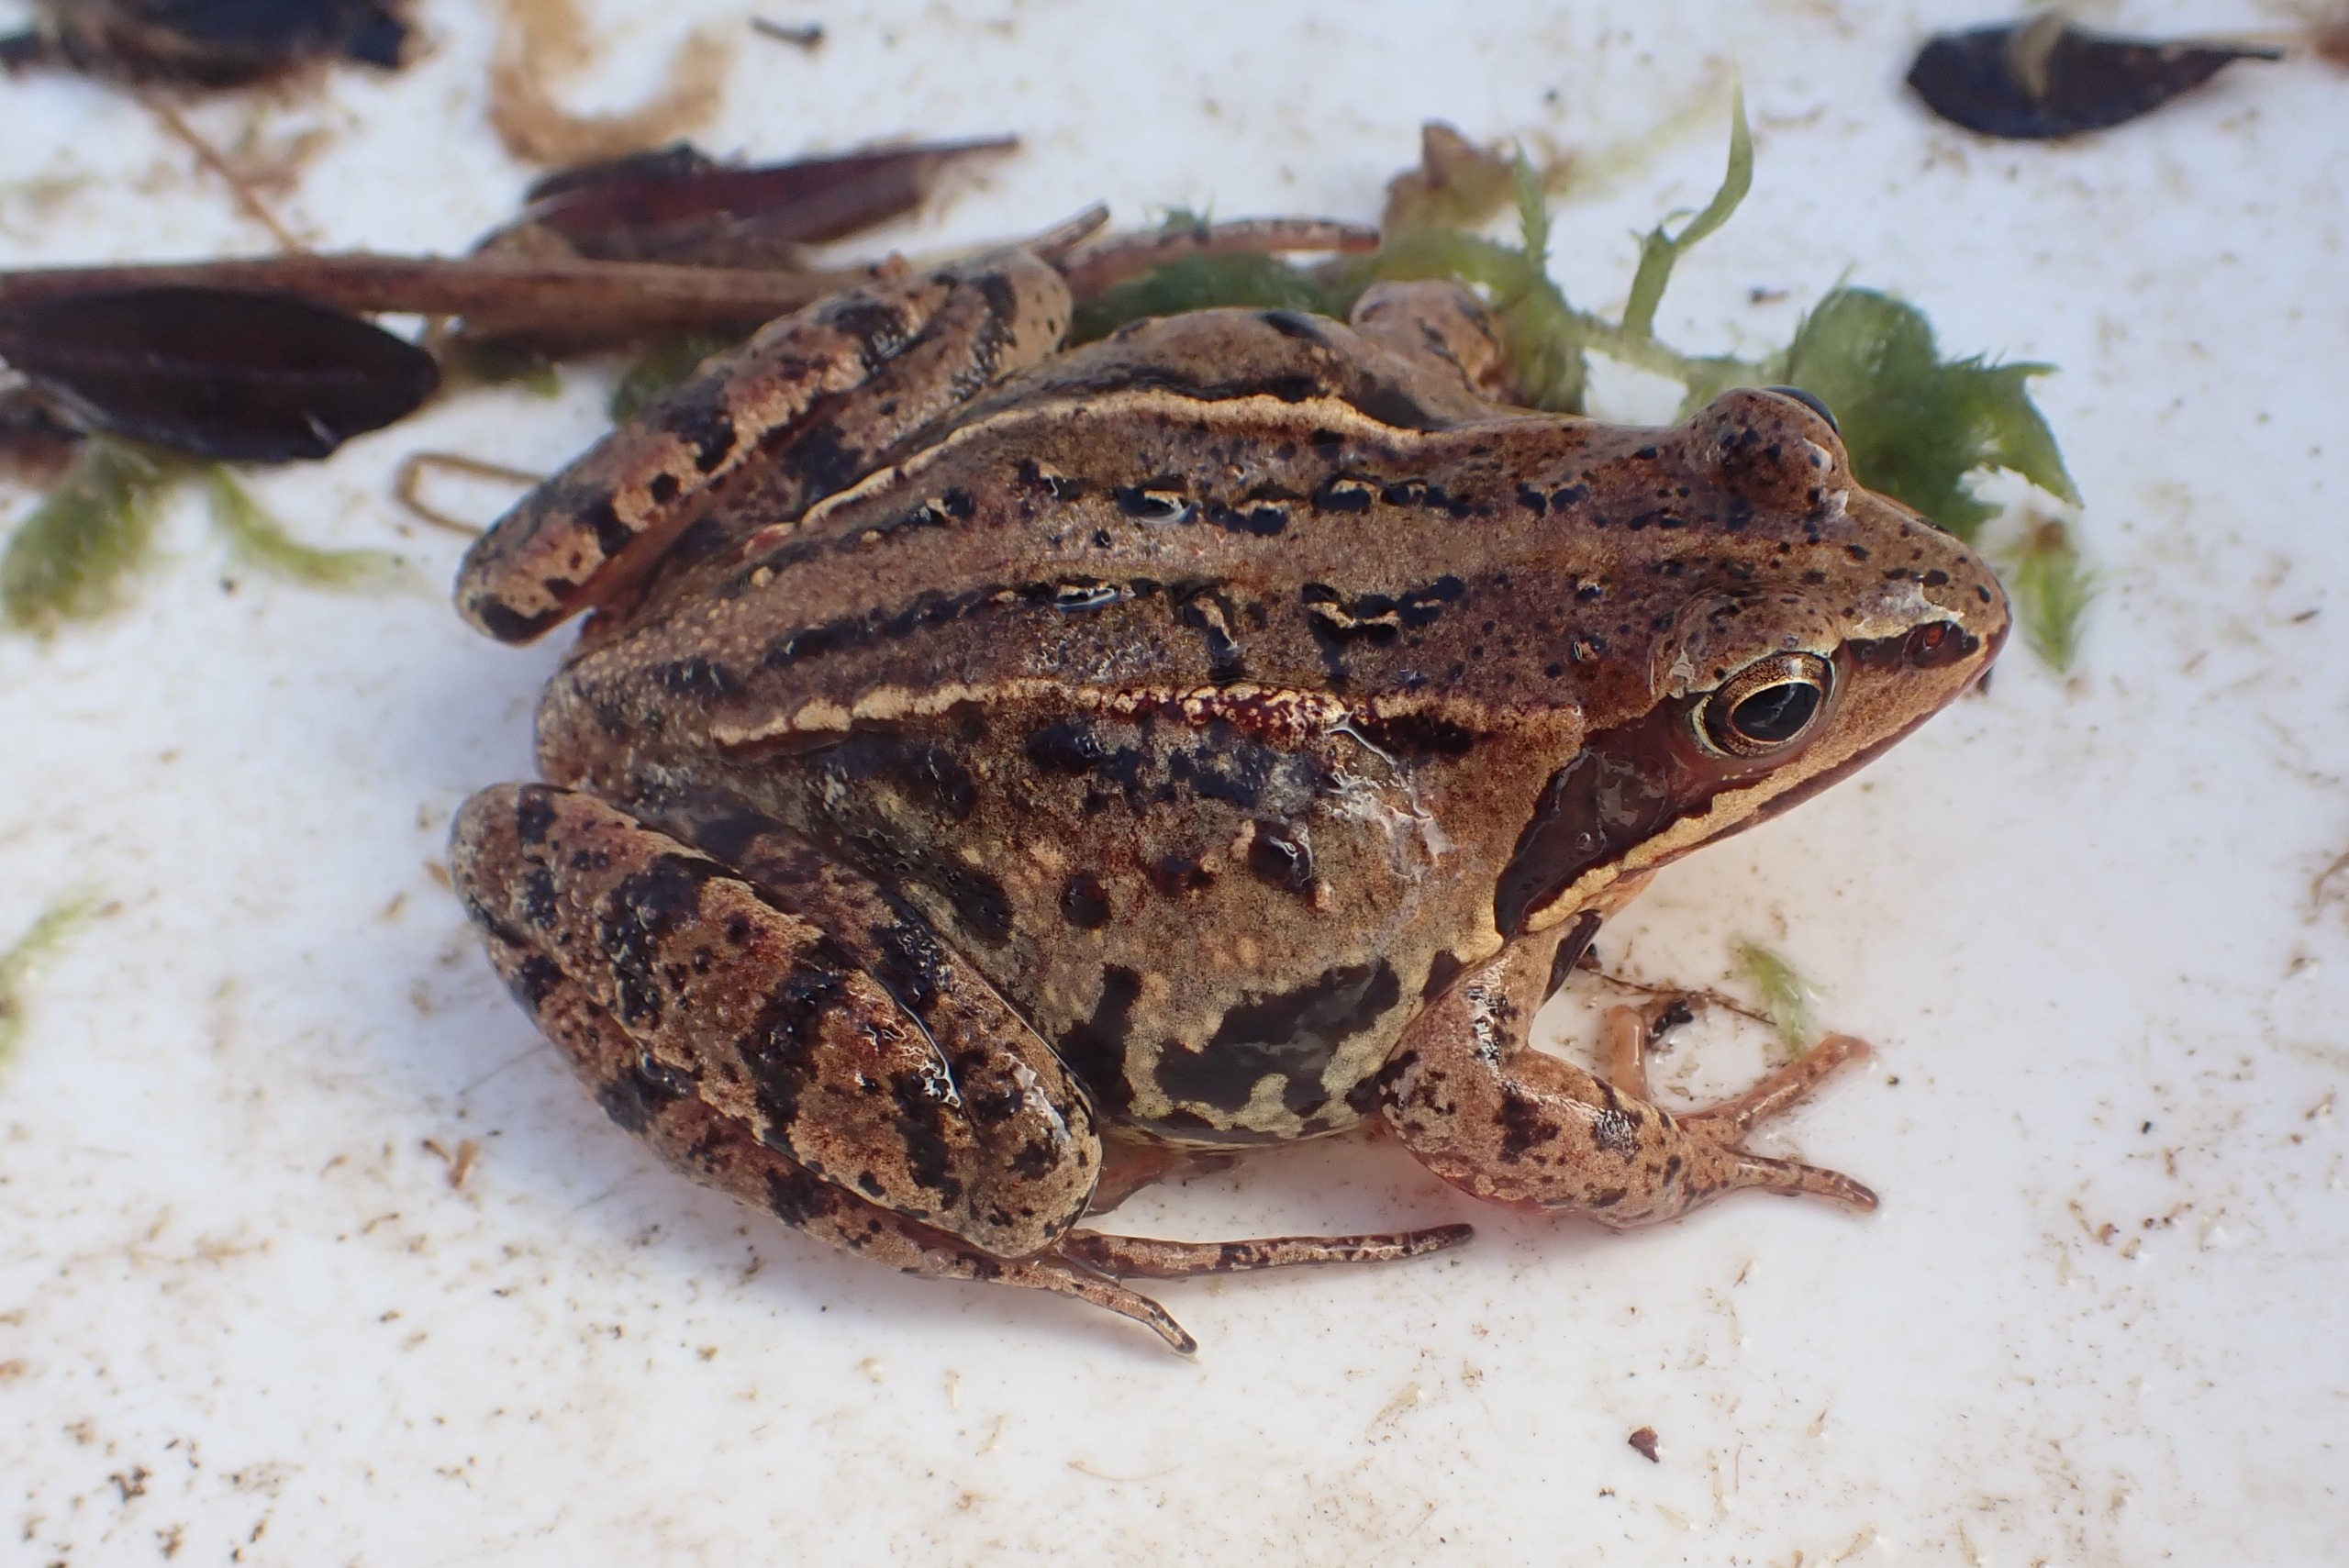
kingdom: Animalia
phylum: Chordata
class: Amphibia
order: Anura
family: Ranidae
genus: Rana
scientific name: Rana arvalis
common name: Spidssnudet frø
